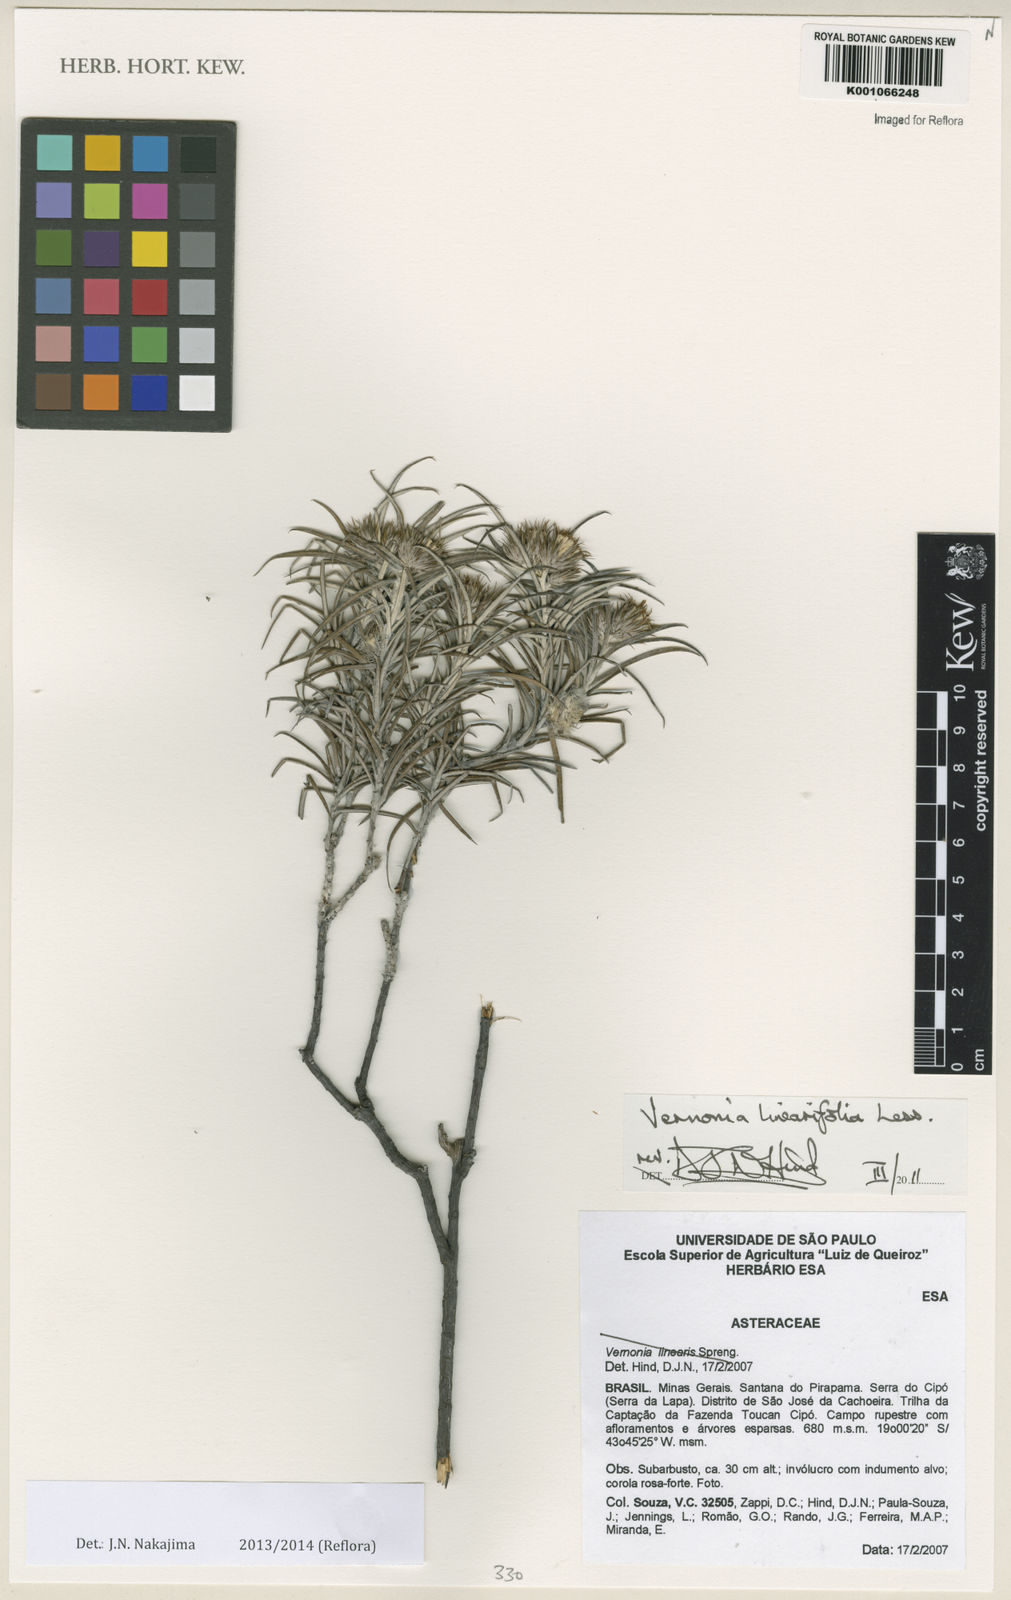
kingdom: Plantae
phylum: Tracheophyta
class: Magnoliopsida
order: Asterales
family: Asteraceae
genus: Lessingianthus
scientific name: Lessingianthus linearis
